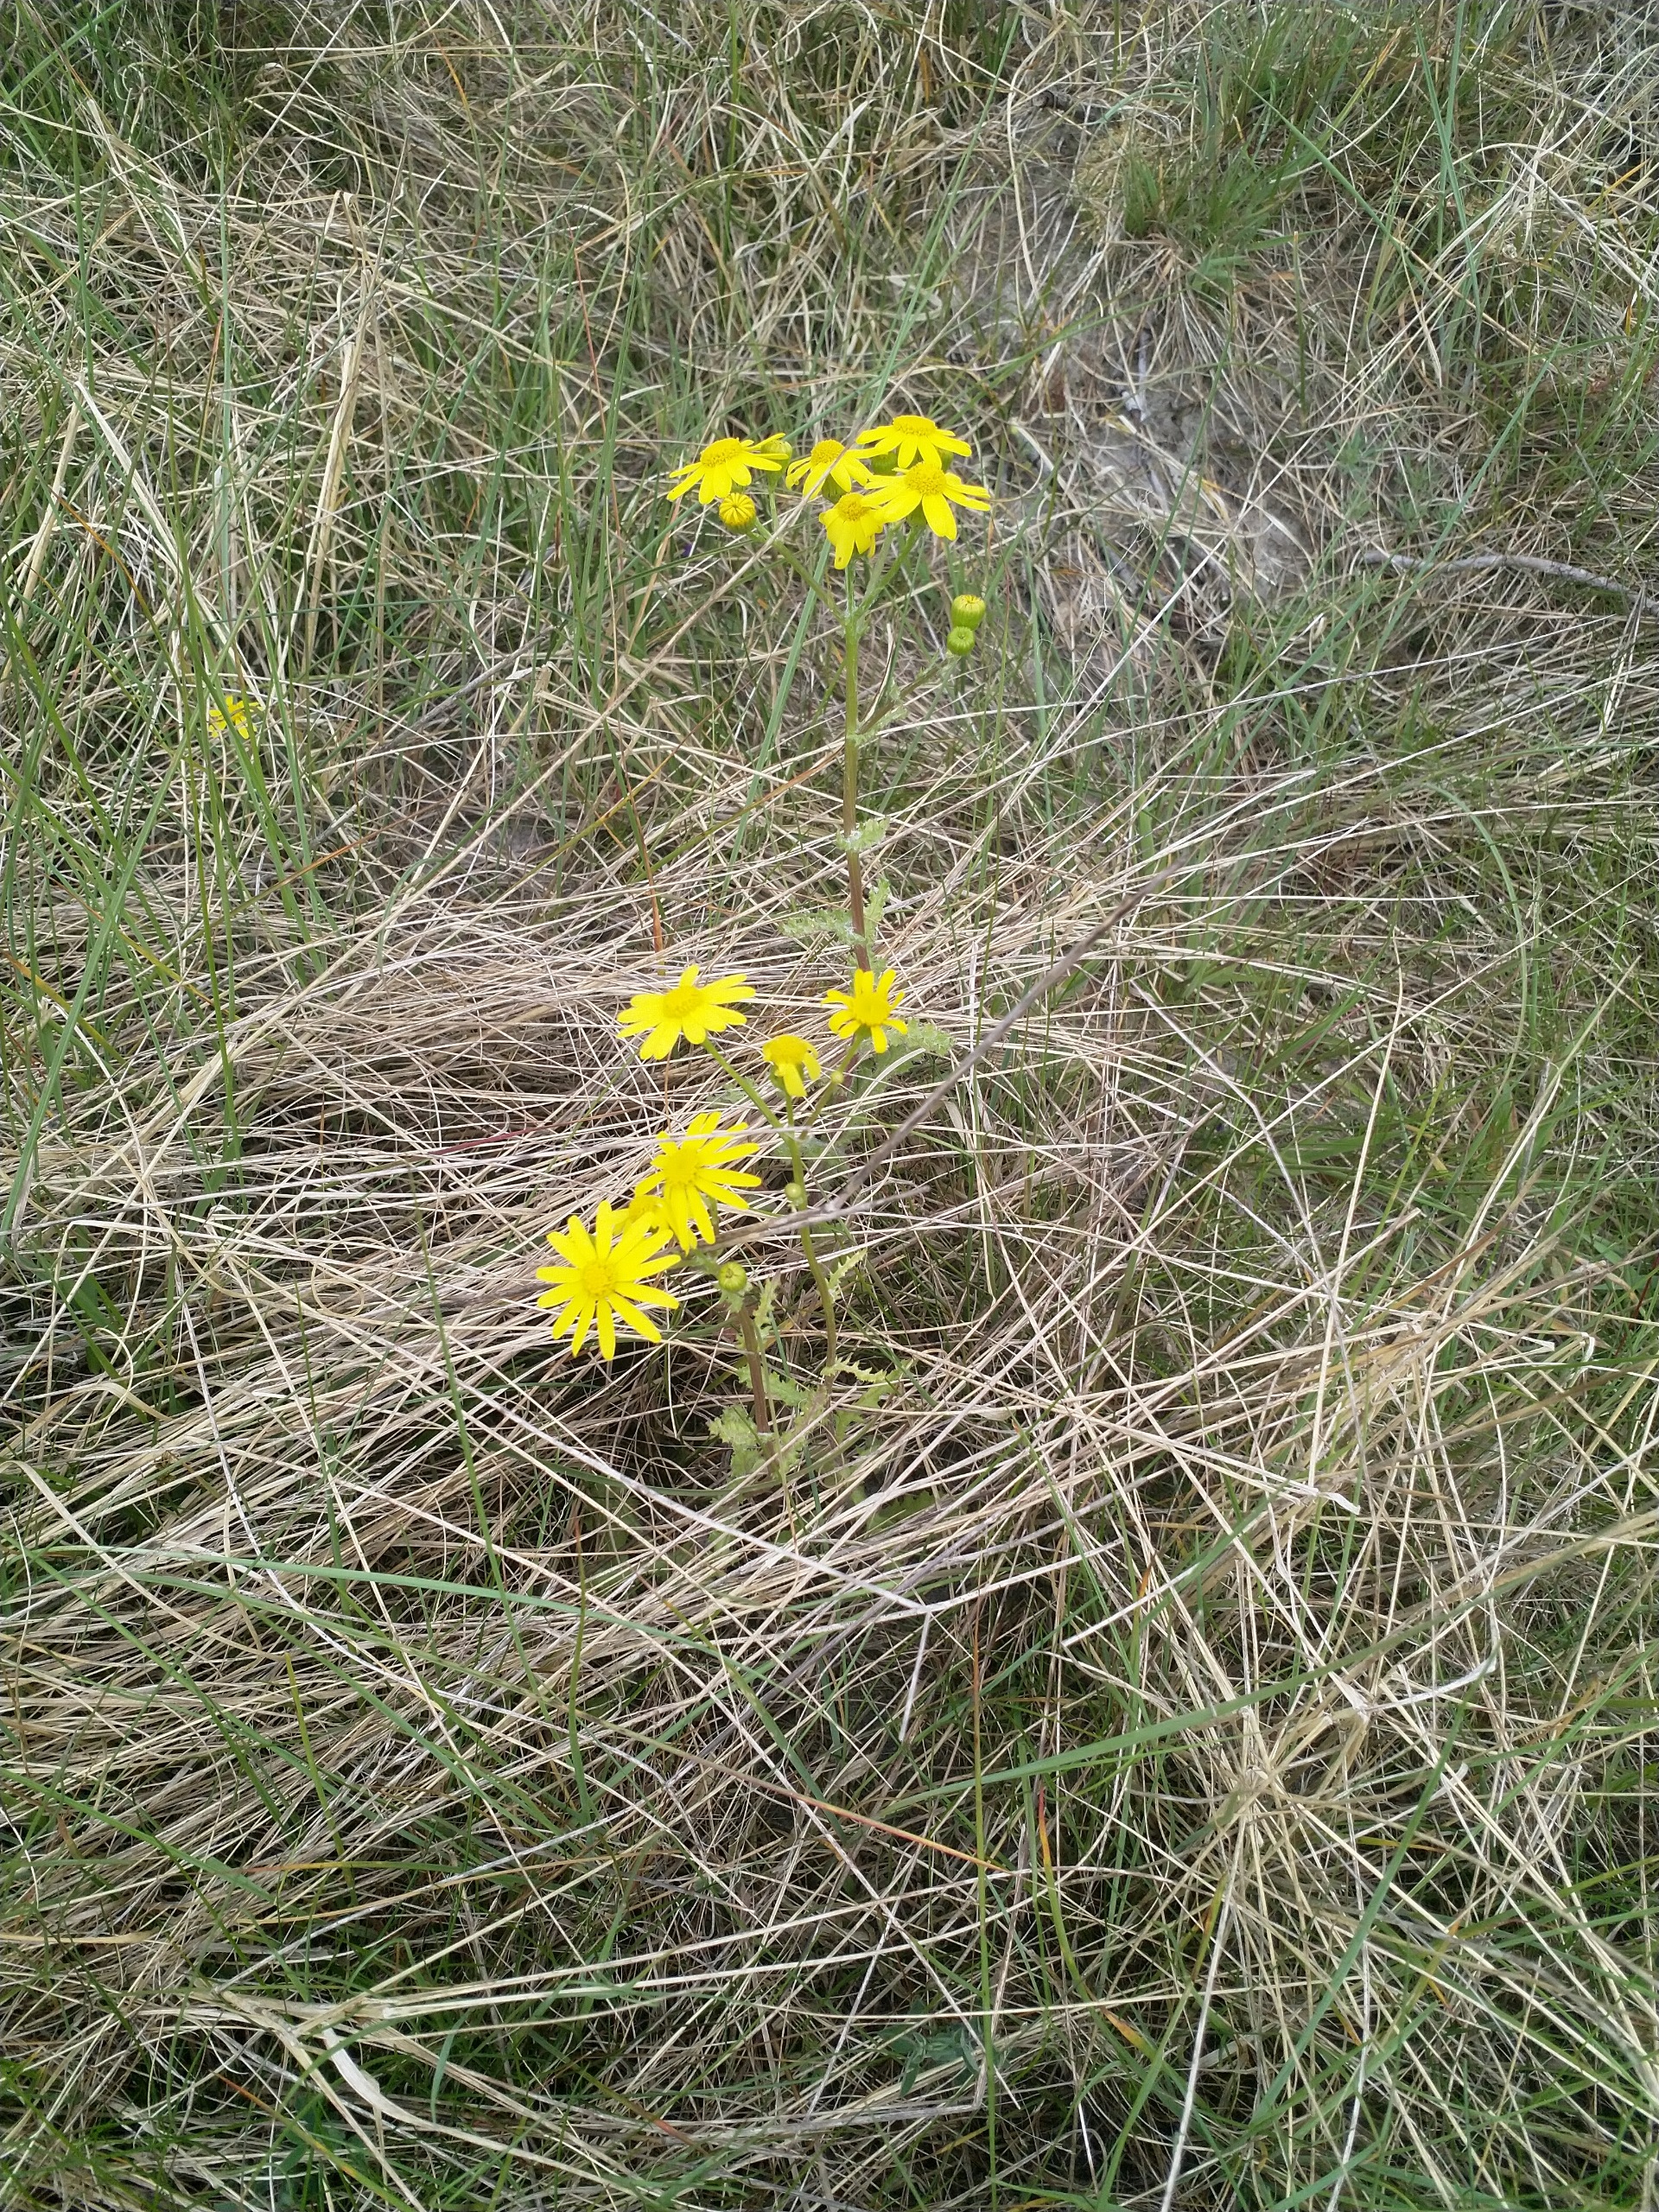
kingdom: Plantae
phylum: Tracheophyta
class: Magnoliopsida
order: Asterales
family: Asteraceae
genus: Senecio
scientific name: Senecio leucanthemifolius
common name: Vår-brandbæger
